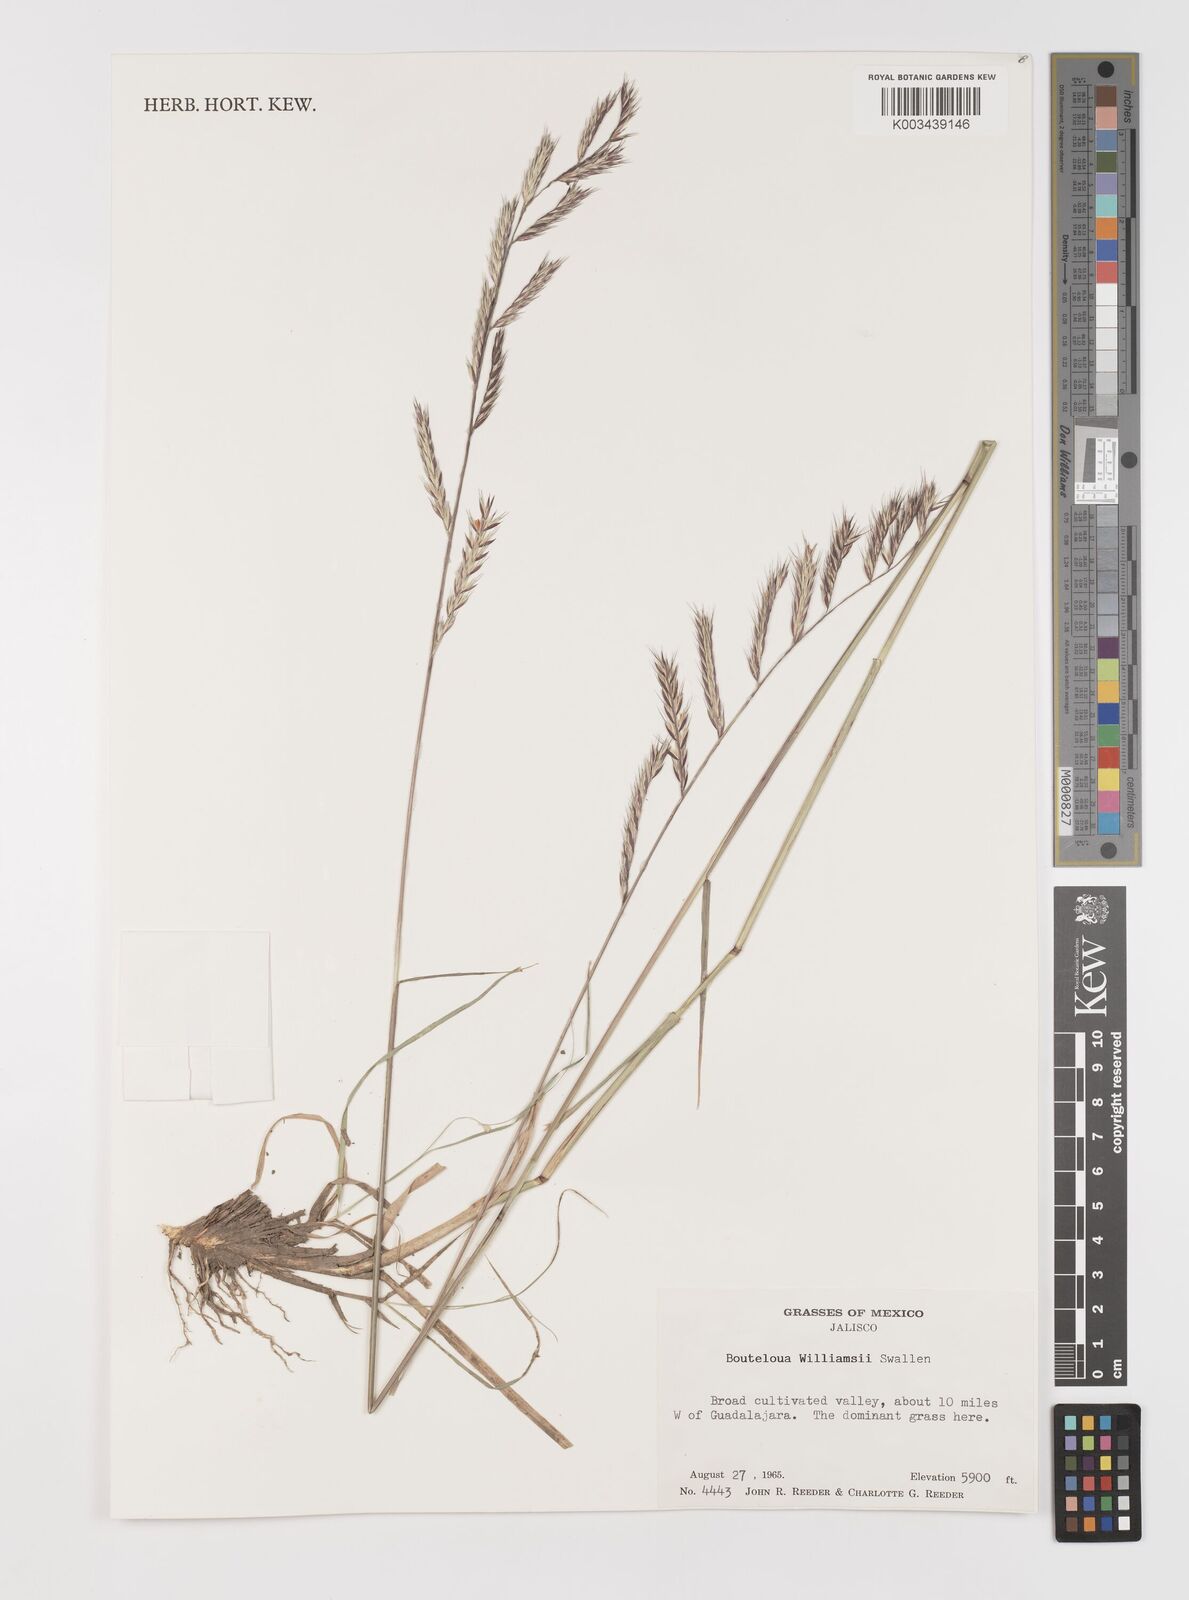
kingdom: Plantae
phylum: Tracheophyta
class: Liliopsida
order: Poales
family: Poaceae
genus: Bouteloua
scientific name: Bouteloua williamsii
